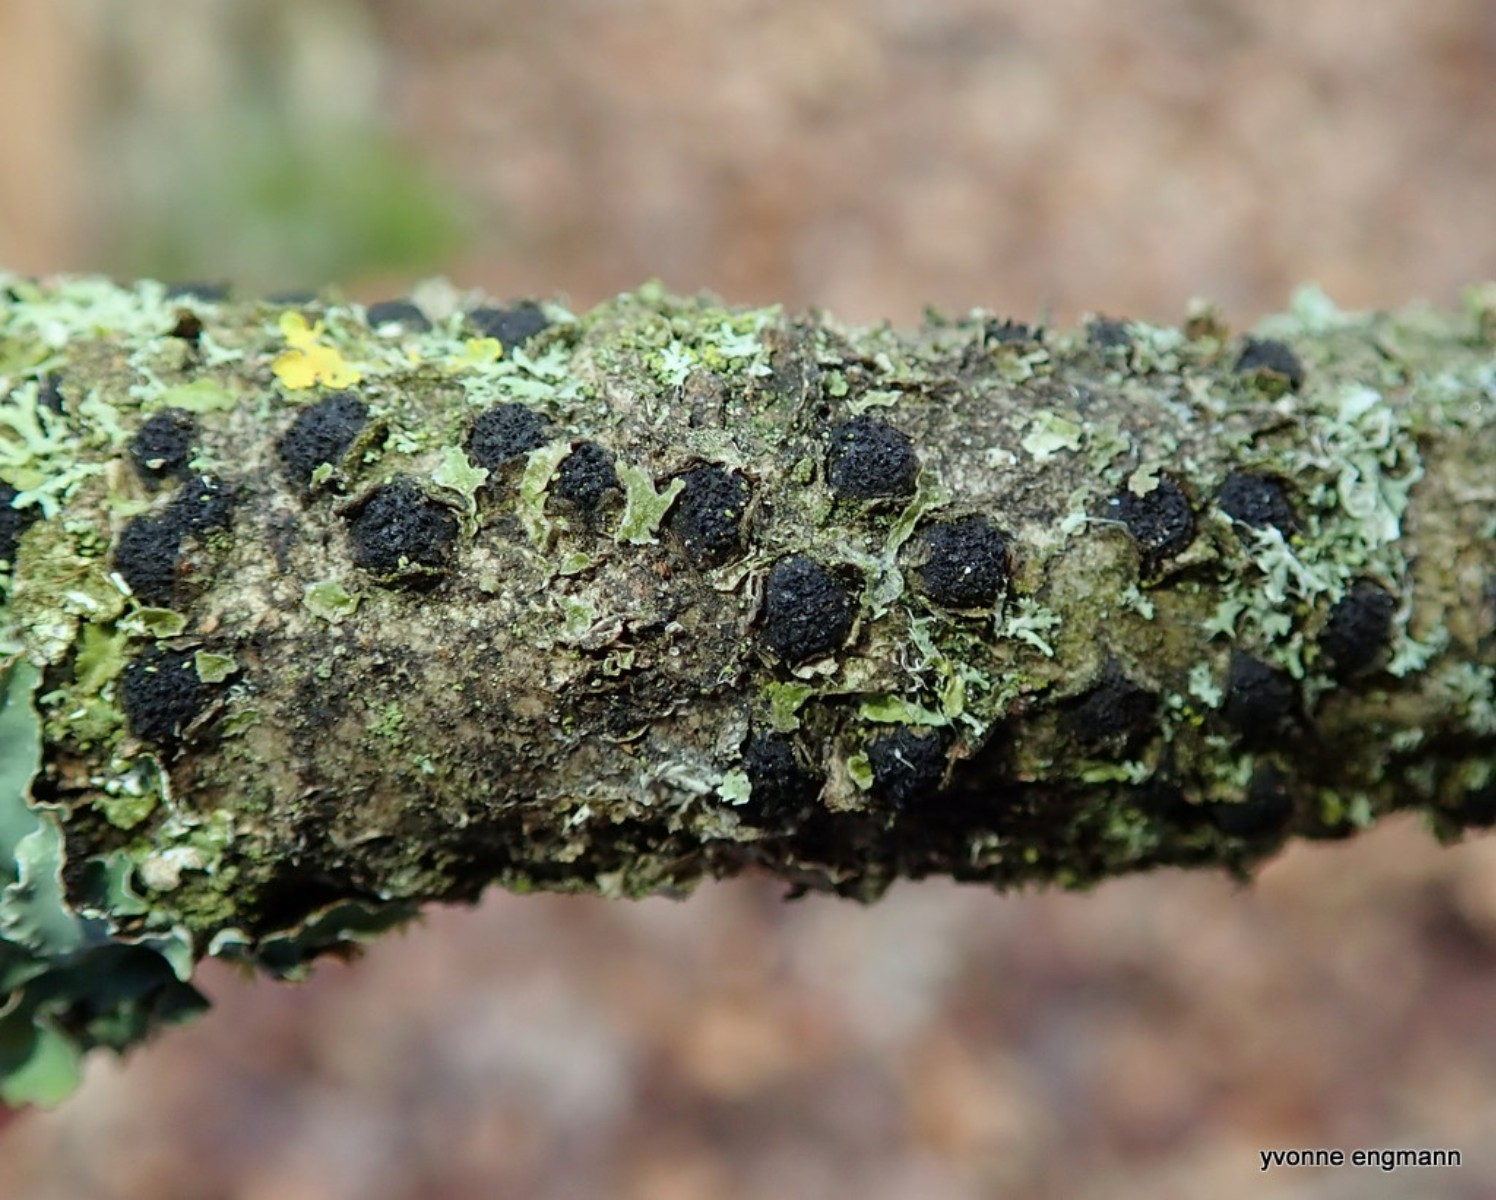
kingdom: Fungi
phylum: Ascomycota
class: Sordariomycetes
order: Xylariales
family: Diatrypaceae
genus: Diatrypella
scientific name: Diatrypella quercina
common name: ege-kulskorpe
